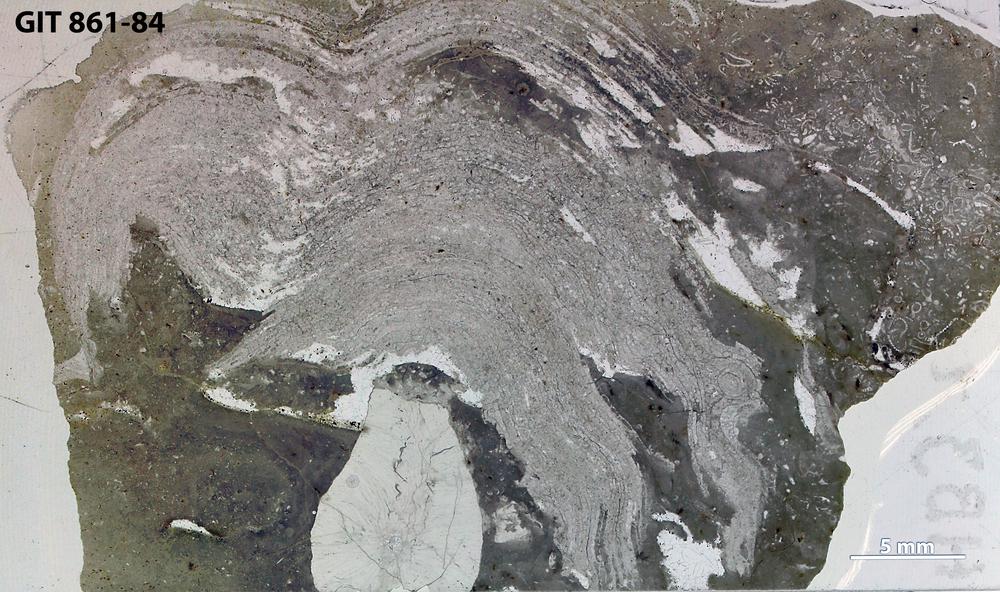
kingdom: Animalia
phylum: Porifera
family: Clathrodictyidae
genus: Clathrodictyon
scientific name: Clathrodictyon microundulatum
